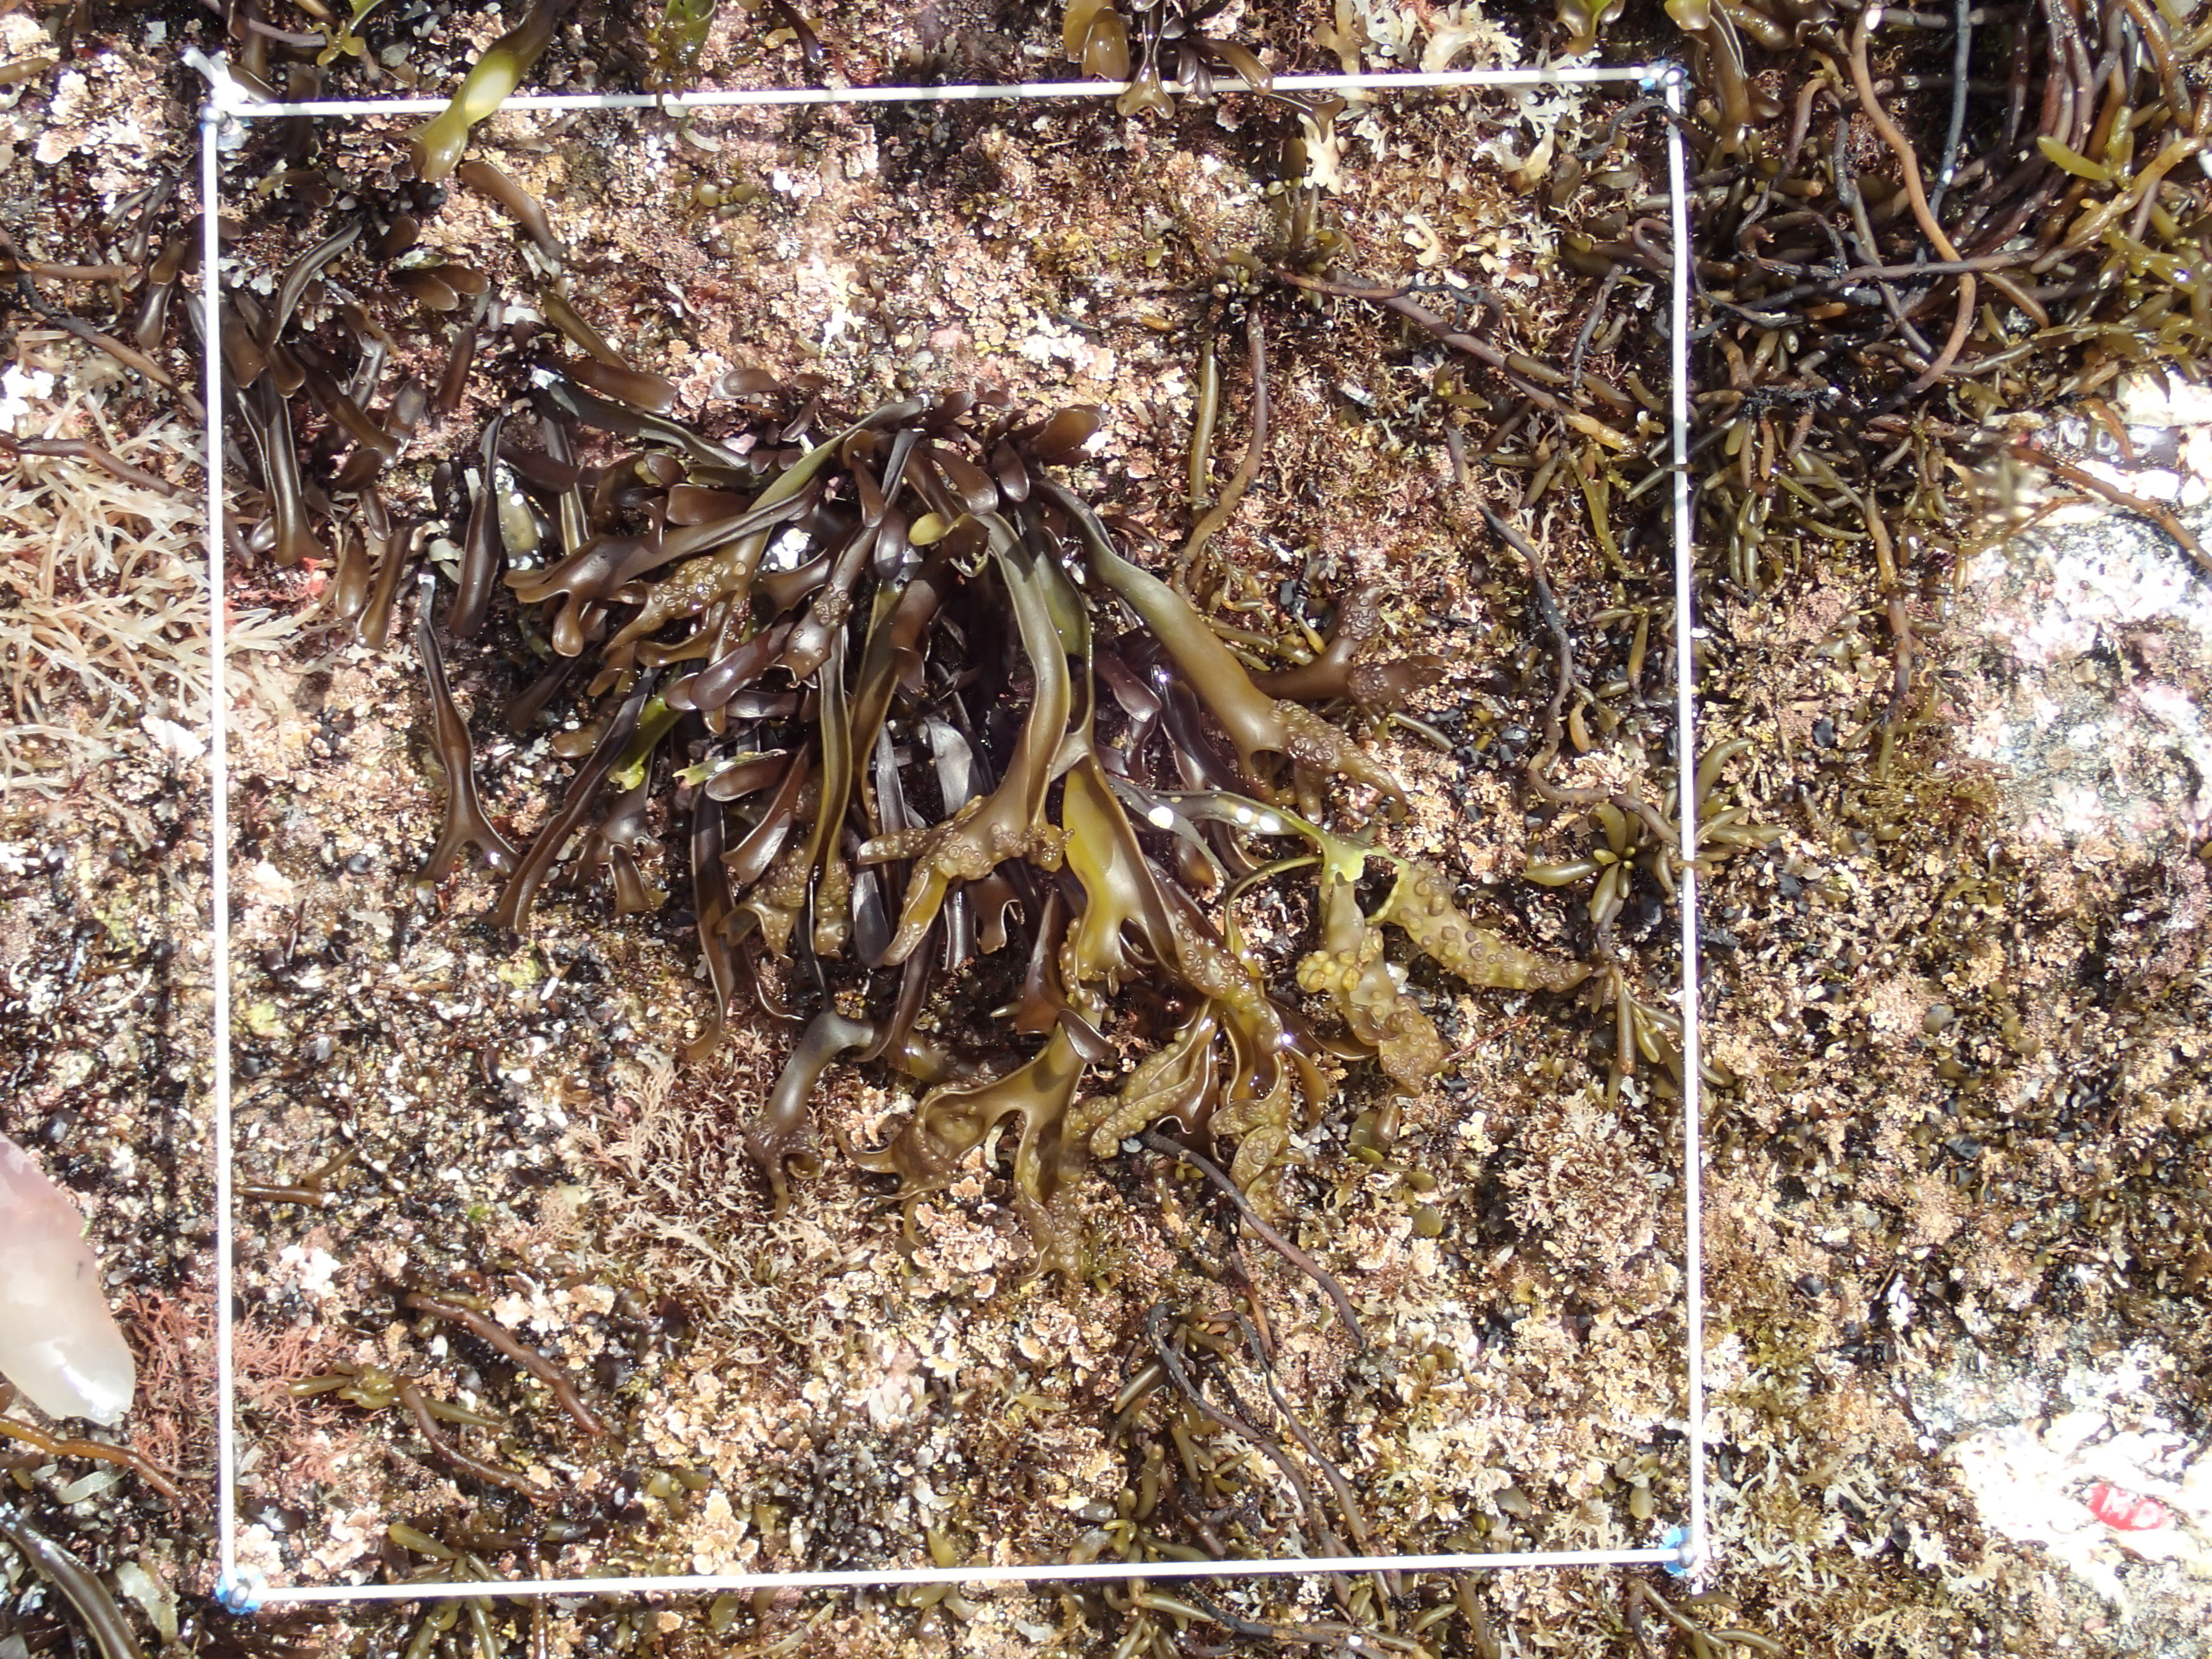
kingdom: Chromista
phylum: Ochrophyta
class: Phaeophyceae
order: Fucales
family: Sargassaceae
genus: Sargassum
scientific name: Sargassum fusiforme
